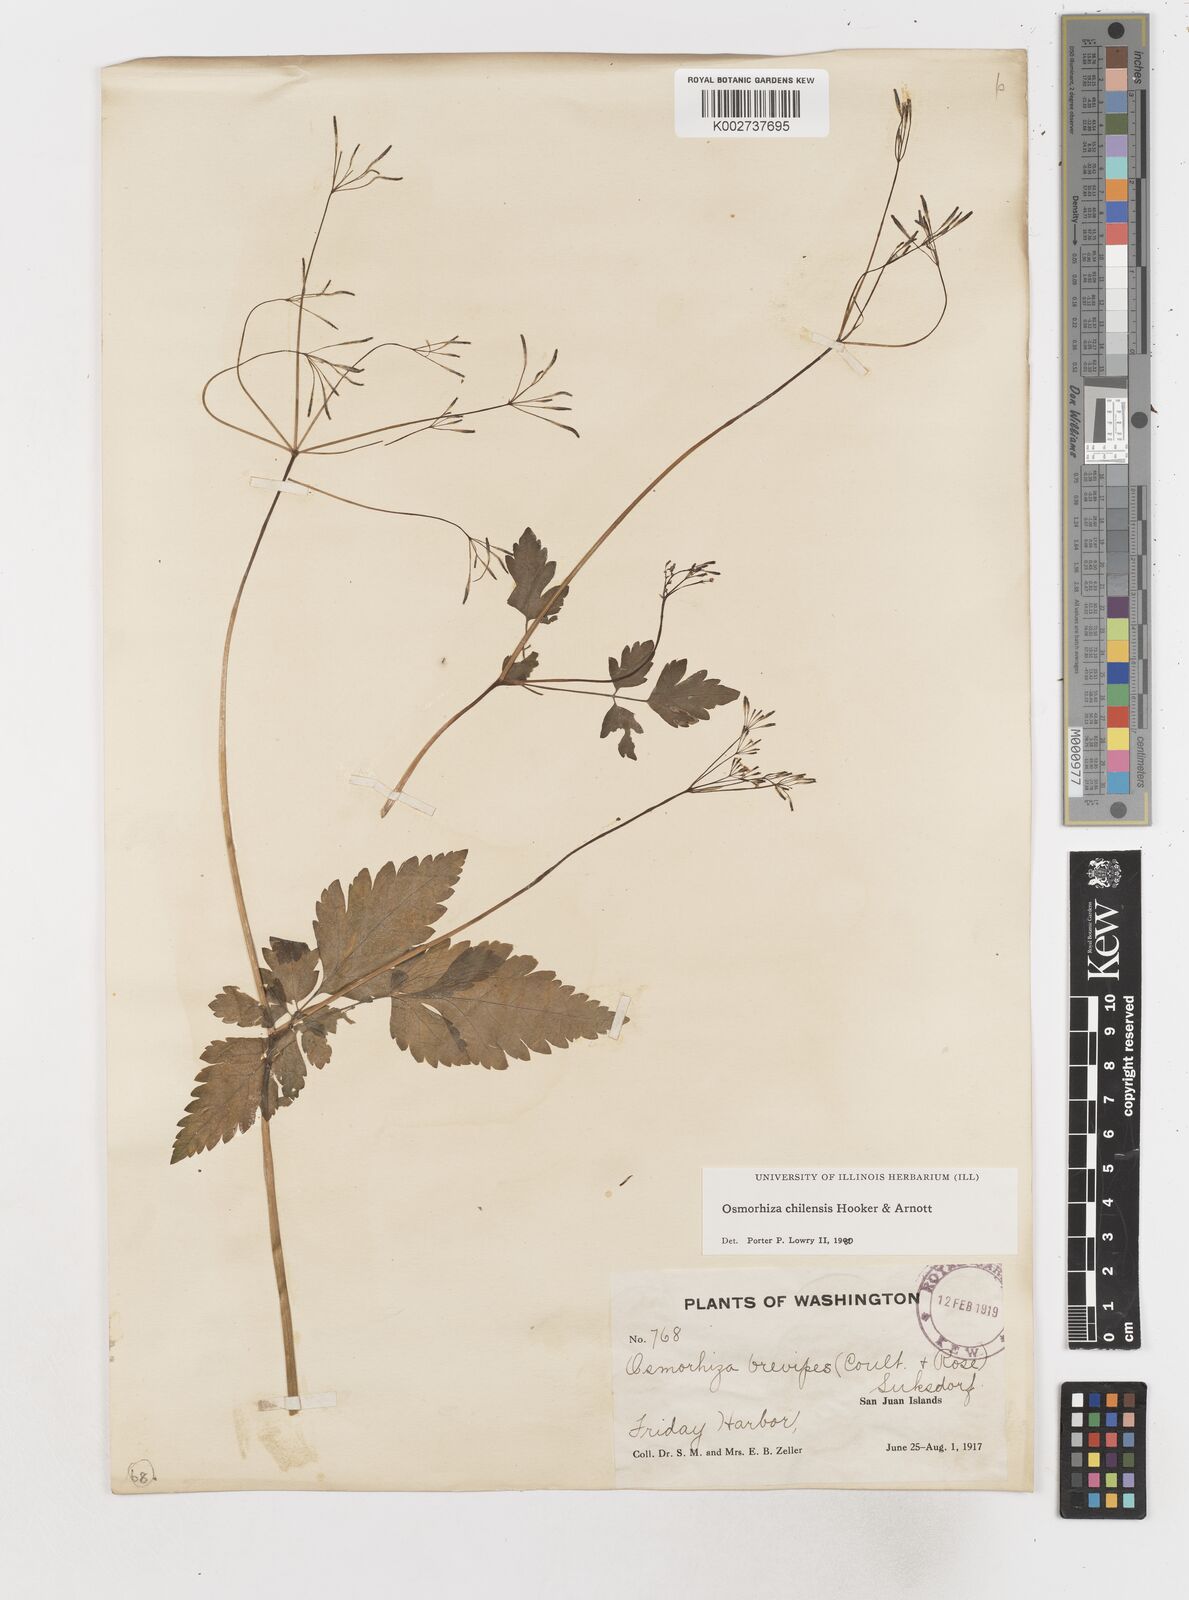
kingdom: Plantae
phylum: Tracheophyta
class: Magnoliopsida
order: Apiales
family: Apiaceae
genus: Osmorhiza
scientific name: Osmorhiza berteroi
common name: Mountain sweet cicely
